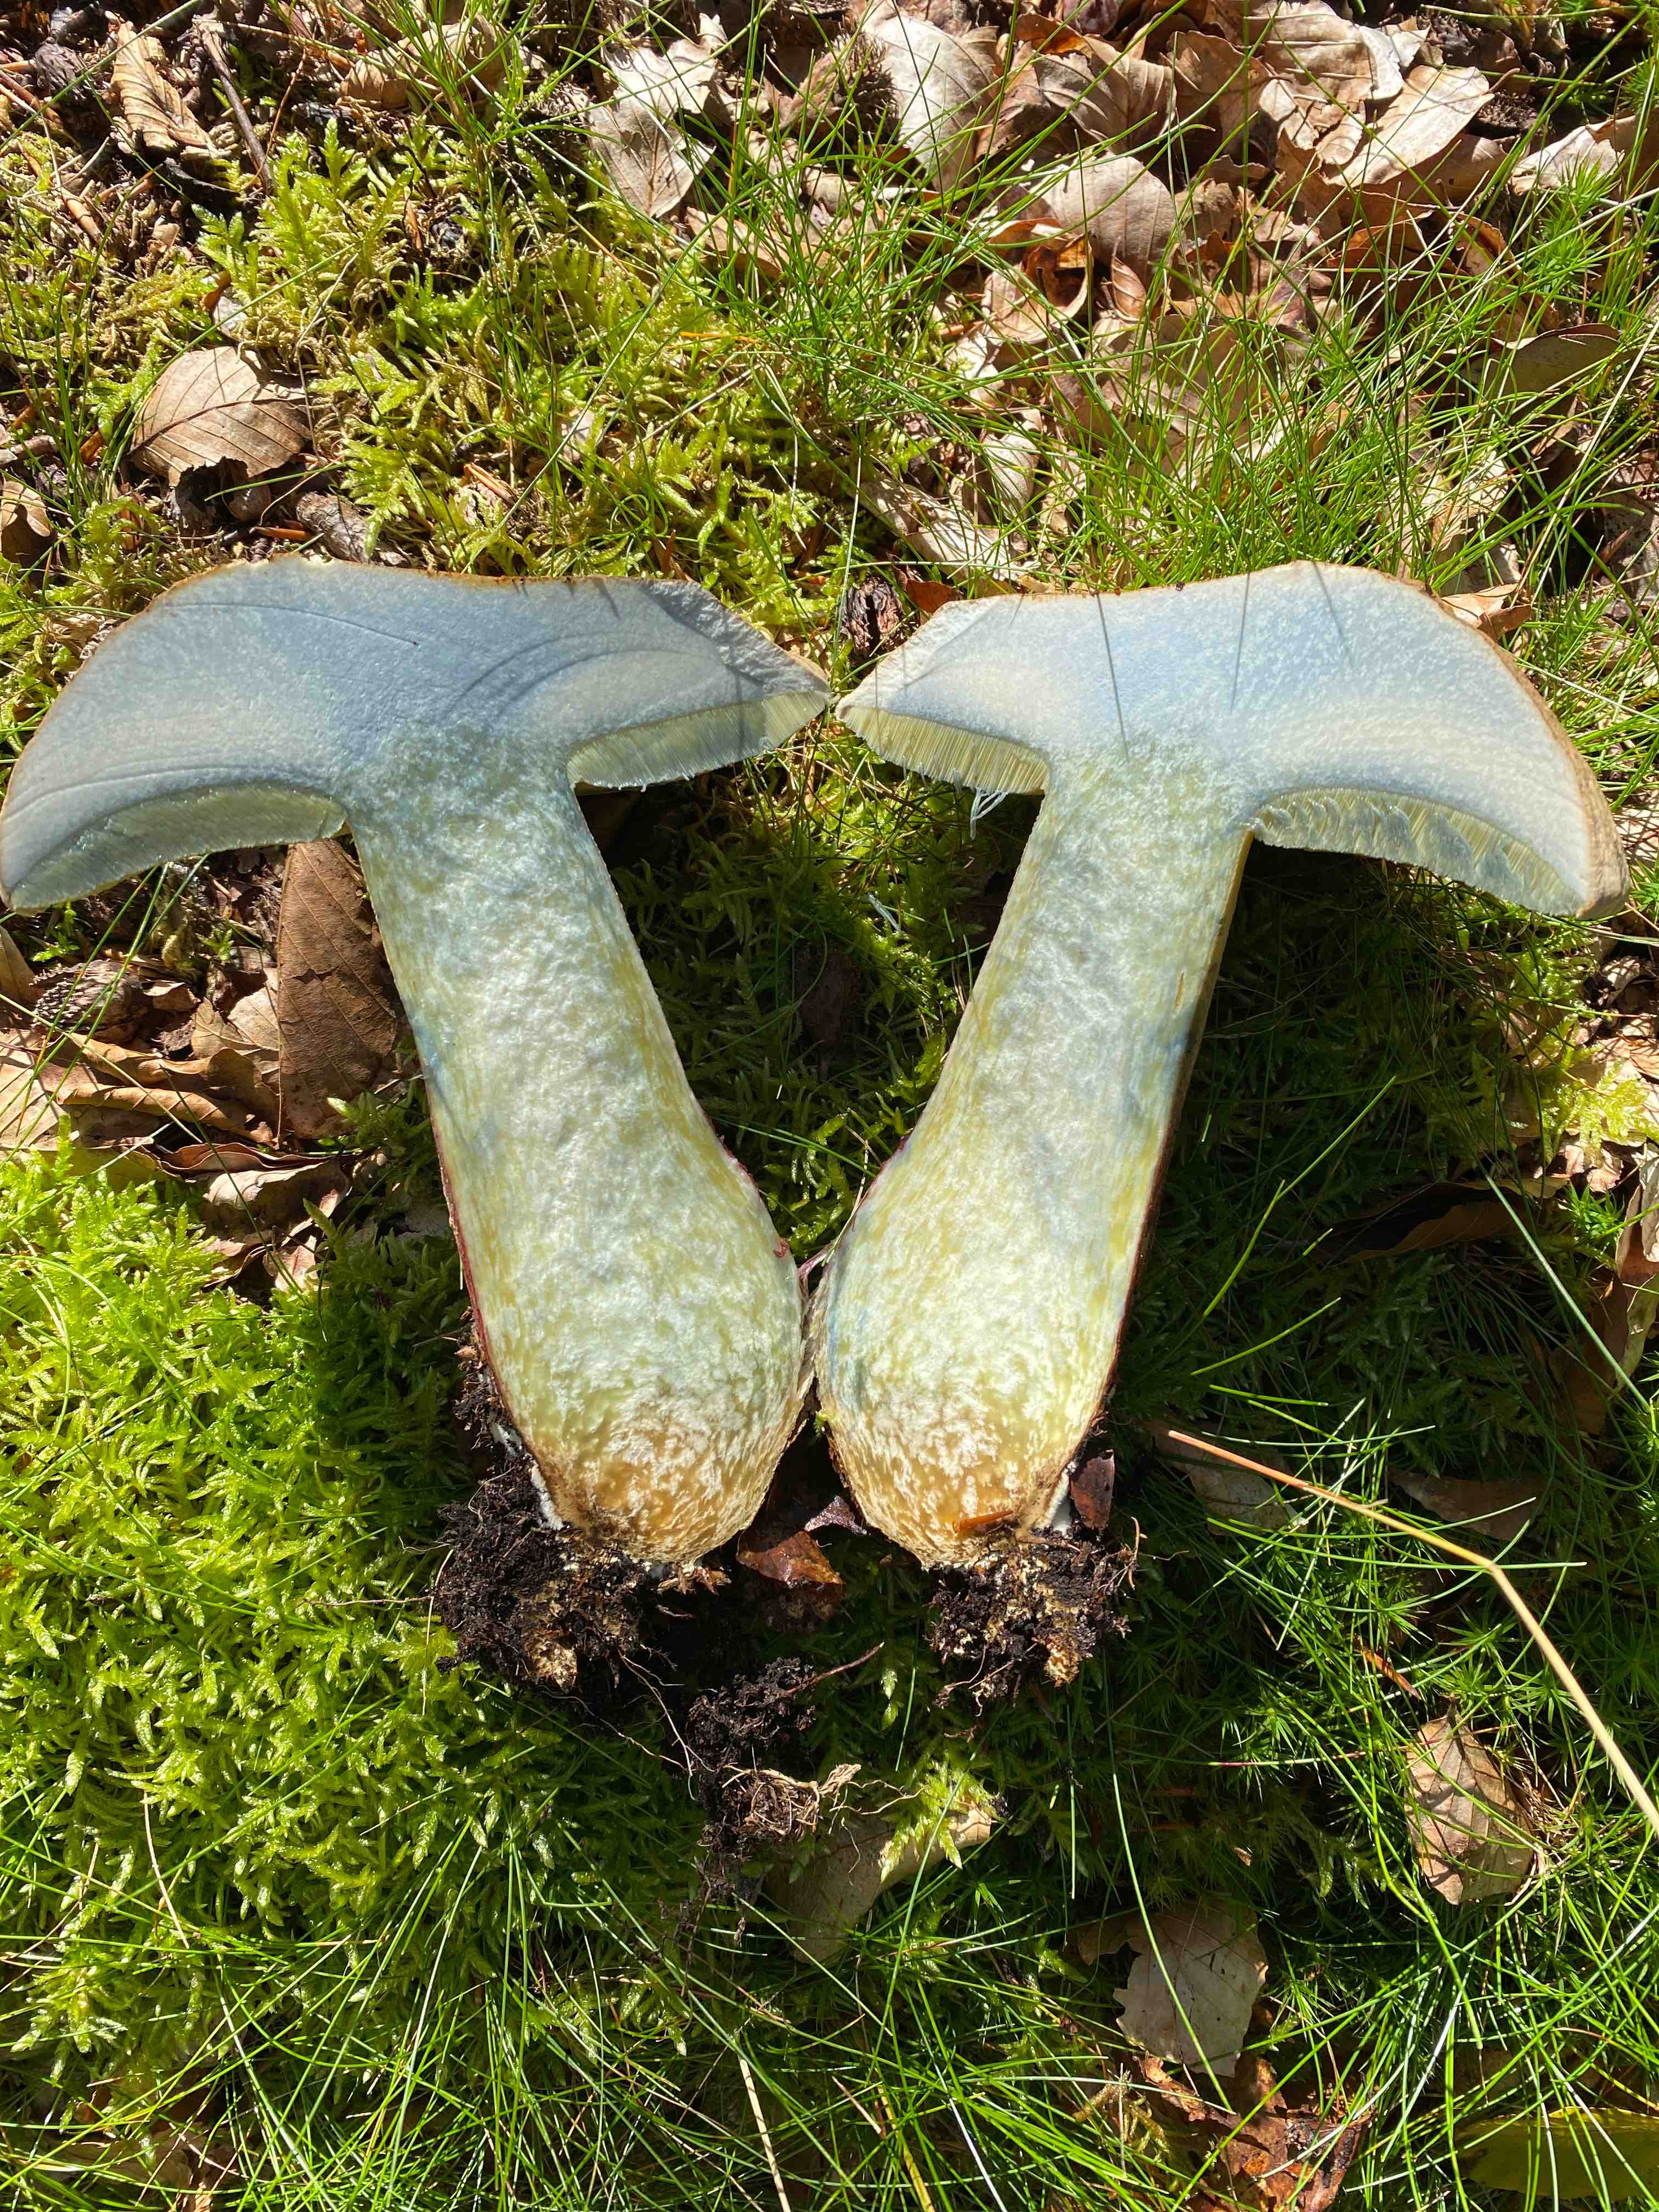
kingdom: Fungi
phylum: Basidiomycota
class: Agaricomycetes
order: Boletales
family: Boletaceae
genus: Caloboletus
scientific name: Caloboletus calopus
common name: skønfodet rørhat
